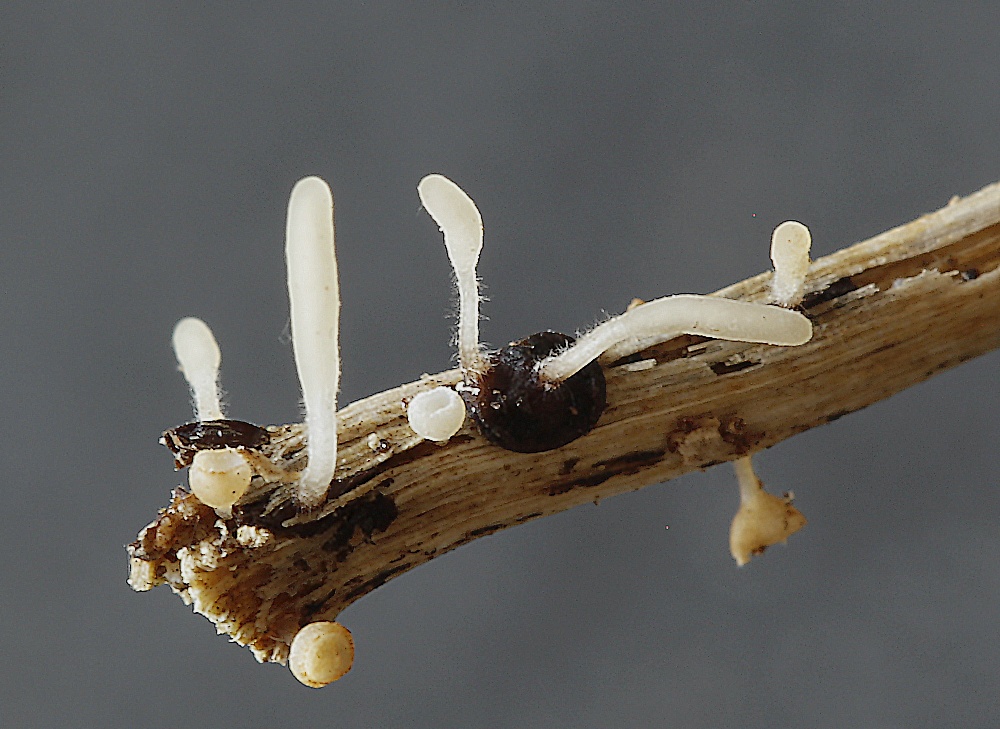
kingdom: Fungi
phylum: Basidiomycota
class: Agaricomycetes
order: Agaricales
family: Typhulaceae
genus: Typhula
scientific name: Typhula setipes
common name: liden trådkølle
